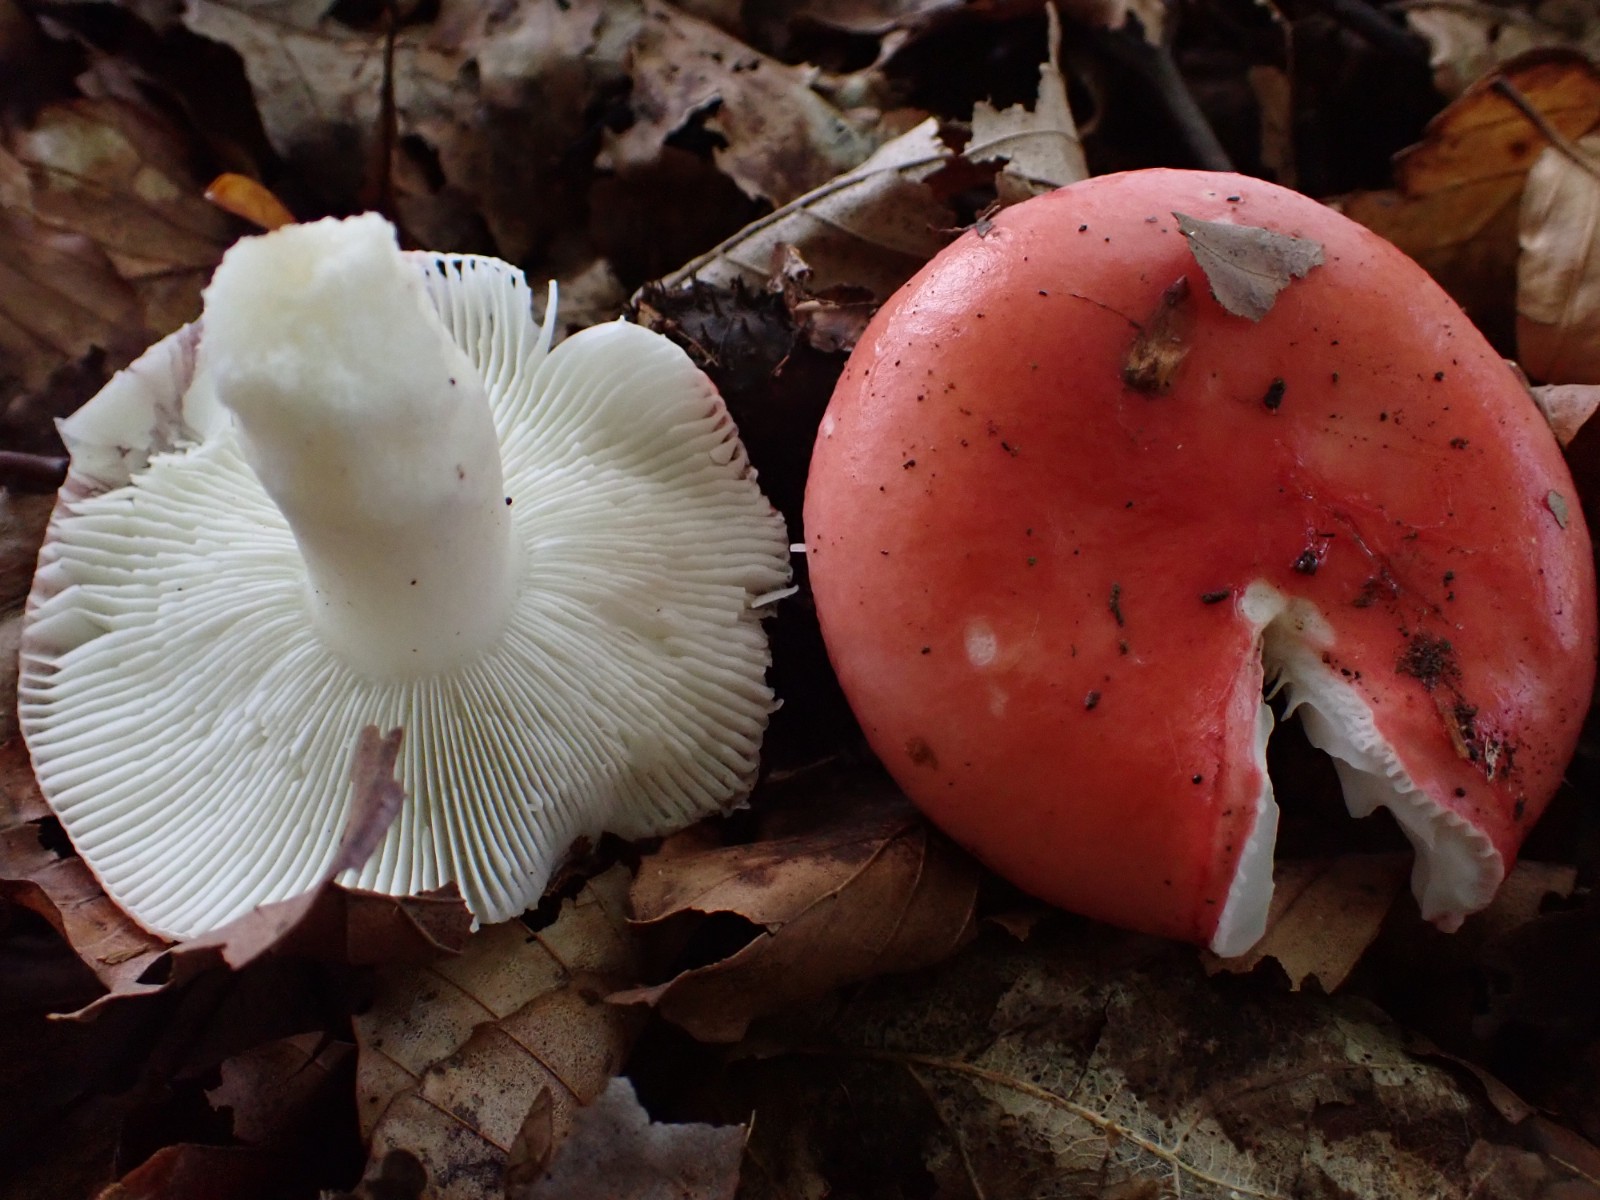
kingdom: Fungi
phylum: Basidiomycota
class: Agaricomycetes
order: Russulales
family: Russulaceae
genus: Russula
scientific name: Russula nobilis
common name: lille gift-skørhat
